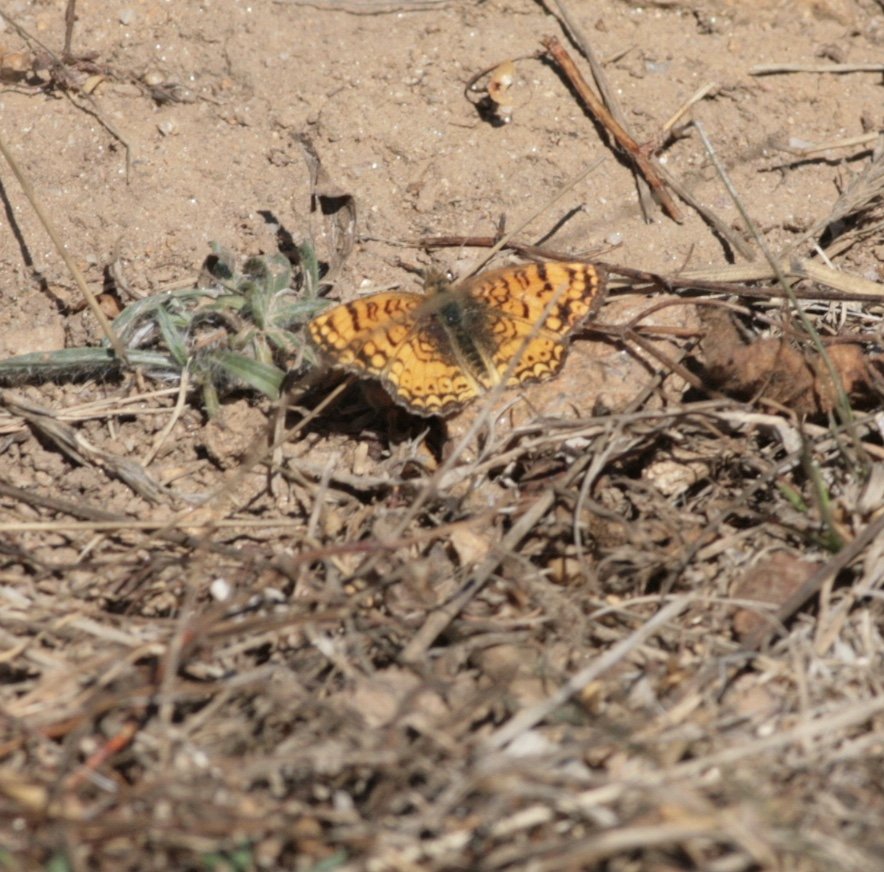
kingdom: Animalia
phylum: Arthropoda
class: Insecta
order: Lepidoptera
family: Nymphalidae
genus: Eresia
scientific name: Eresia aveyrona
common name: Mylitta Crescent
